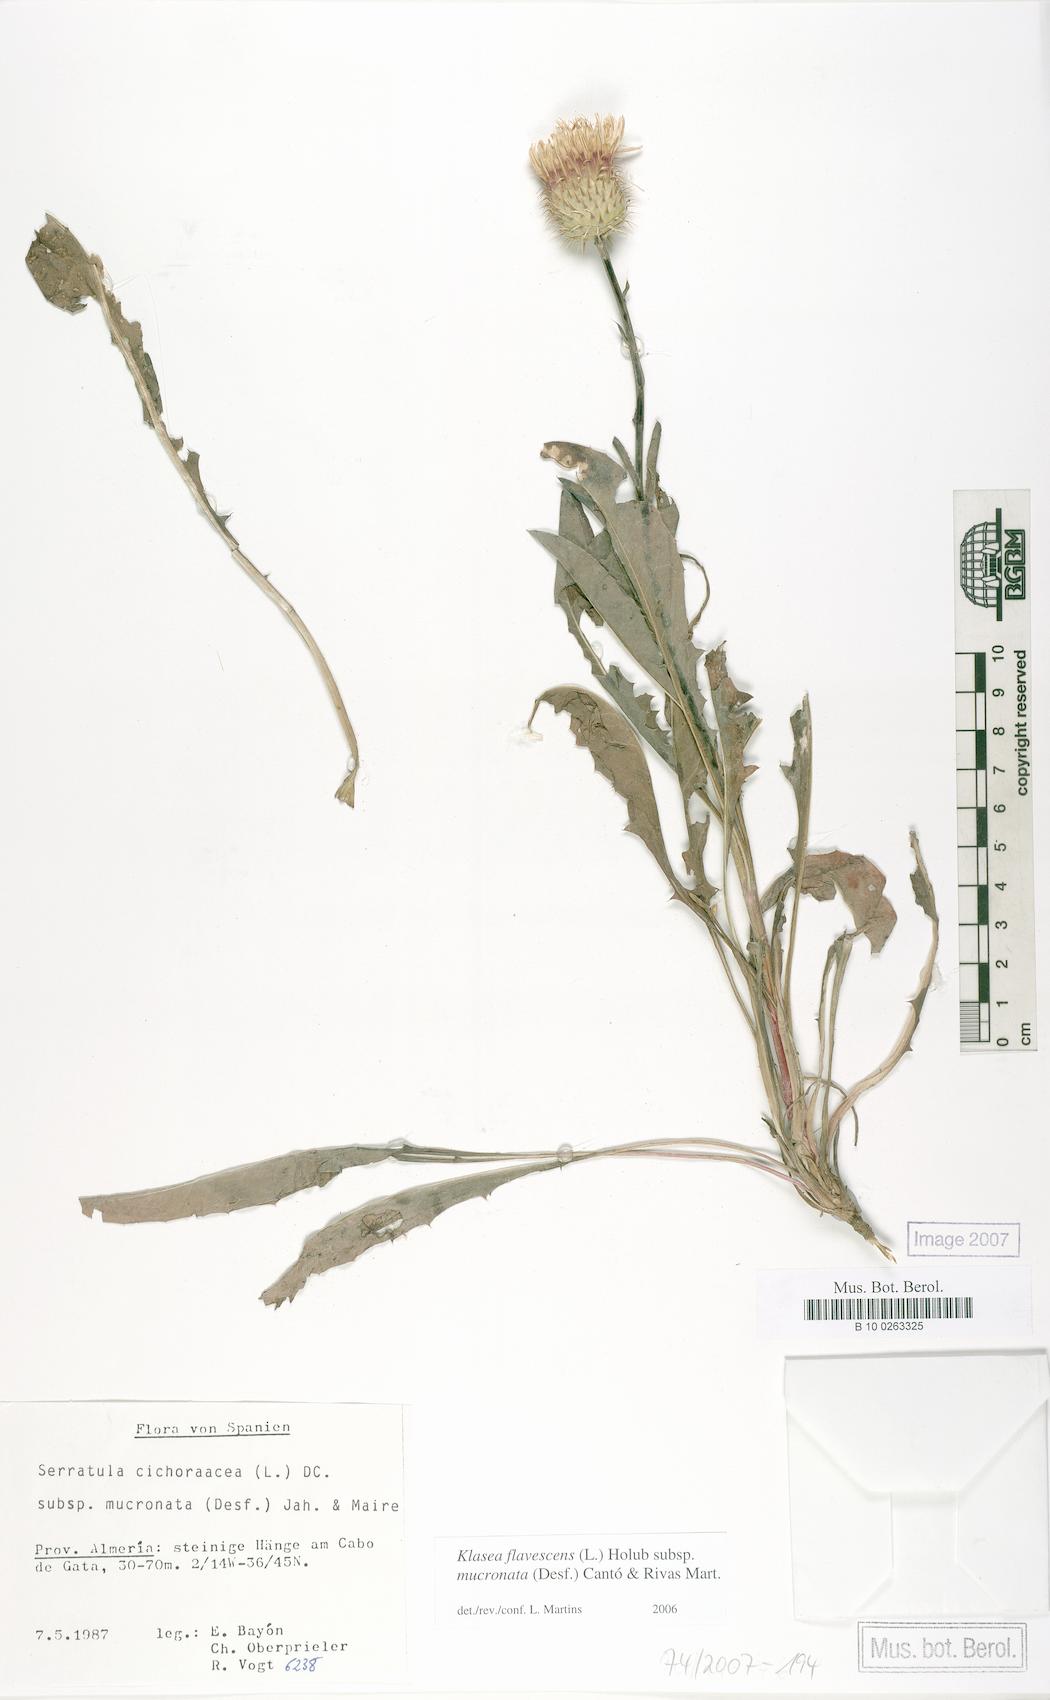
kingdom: Plantae
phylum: Tracheophyta
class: Magnoliopsida
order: Asterales
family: Asteraceae
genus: Klasea
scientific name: Klasea flavescens
